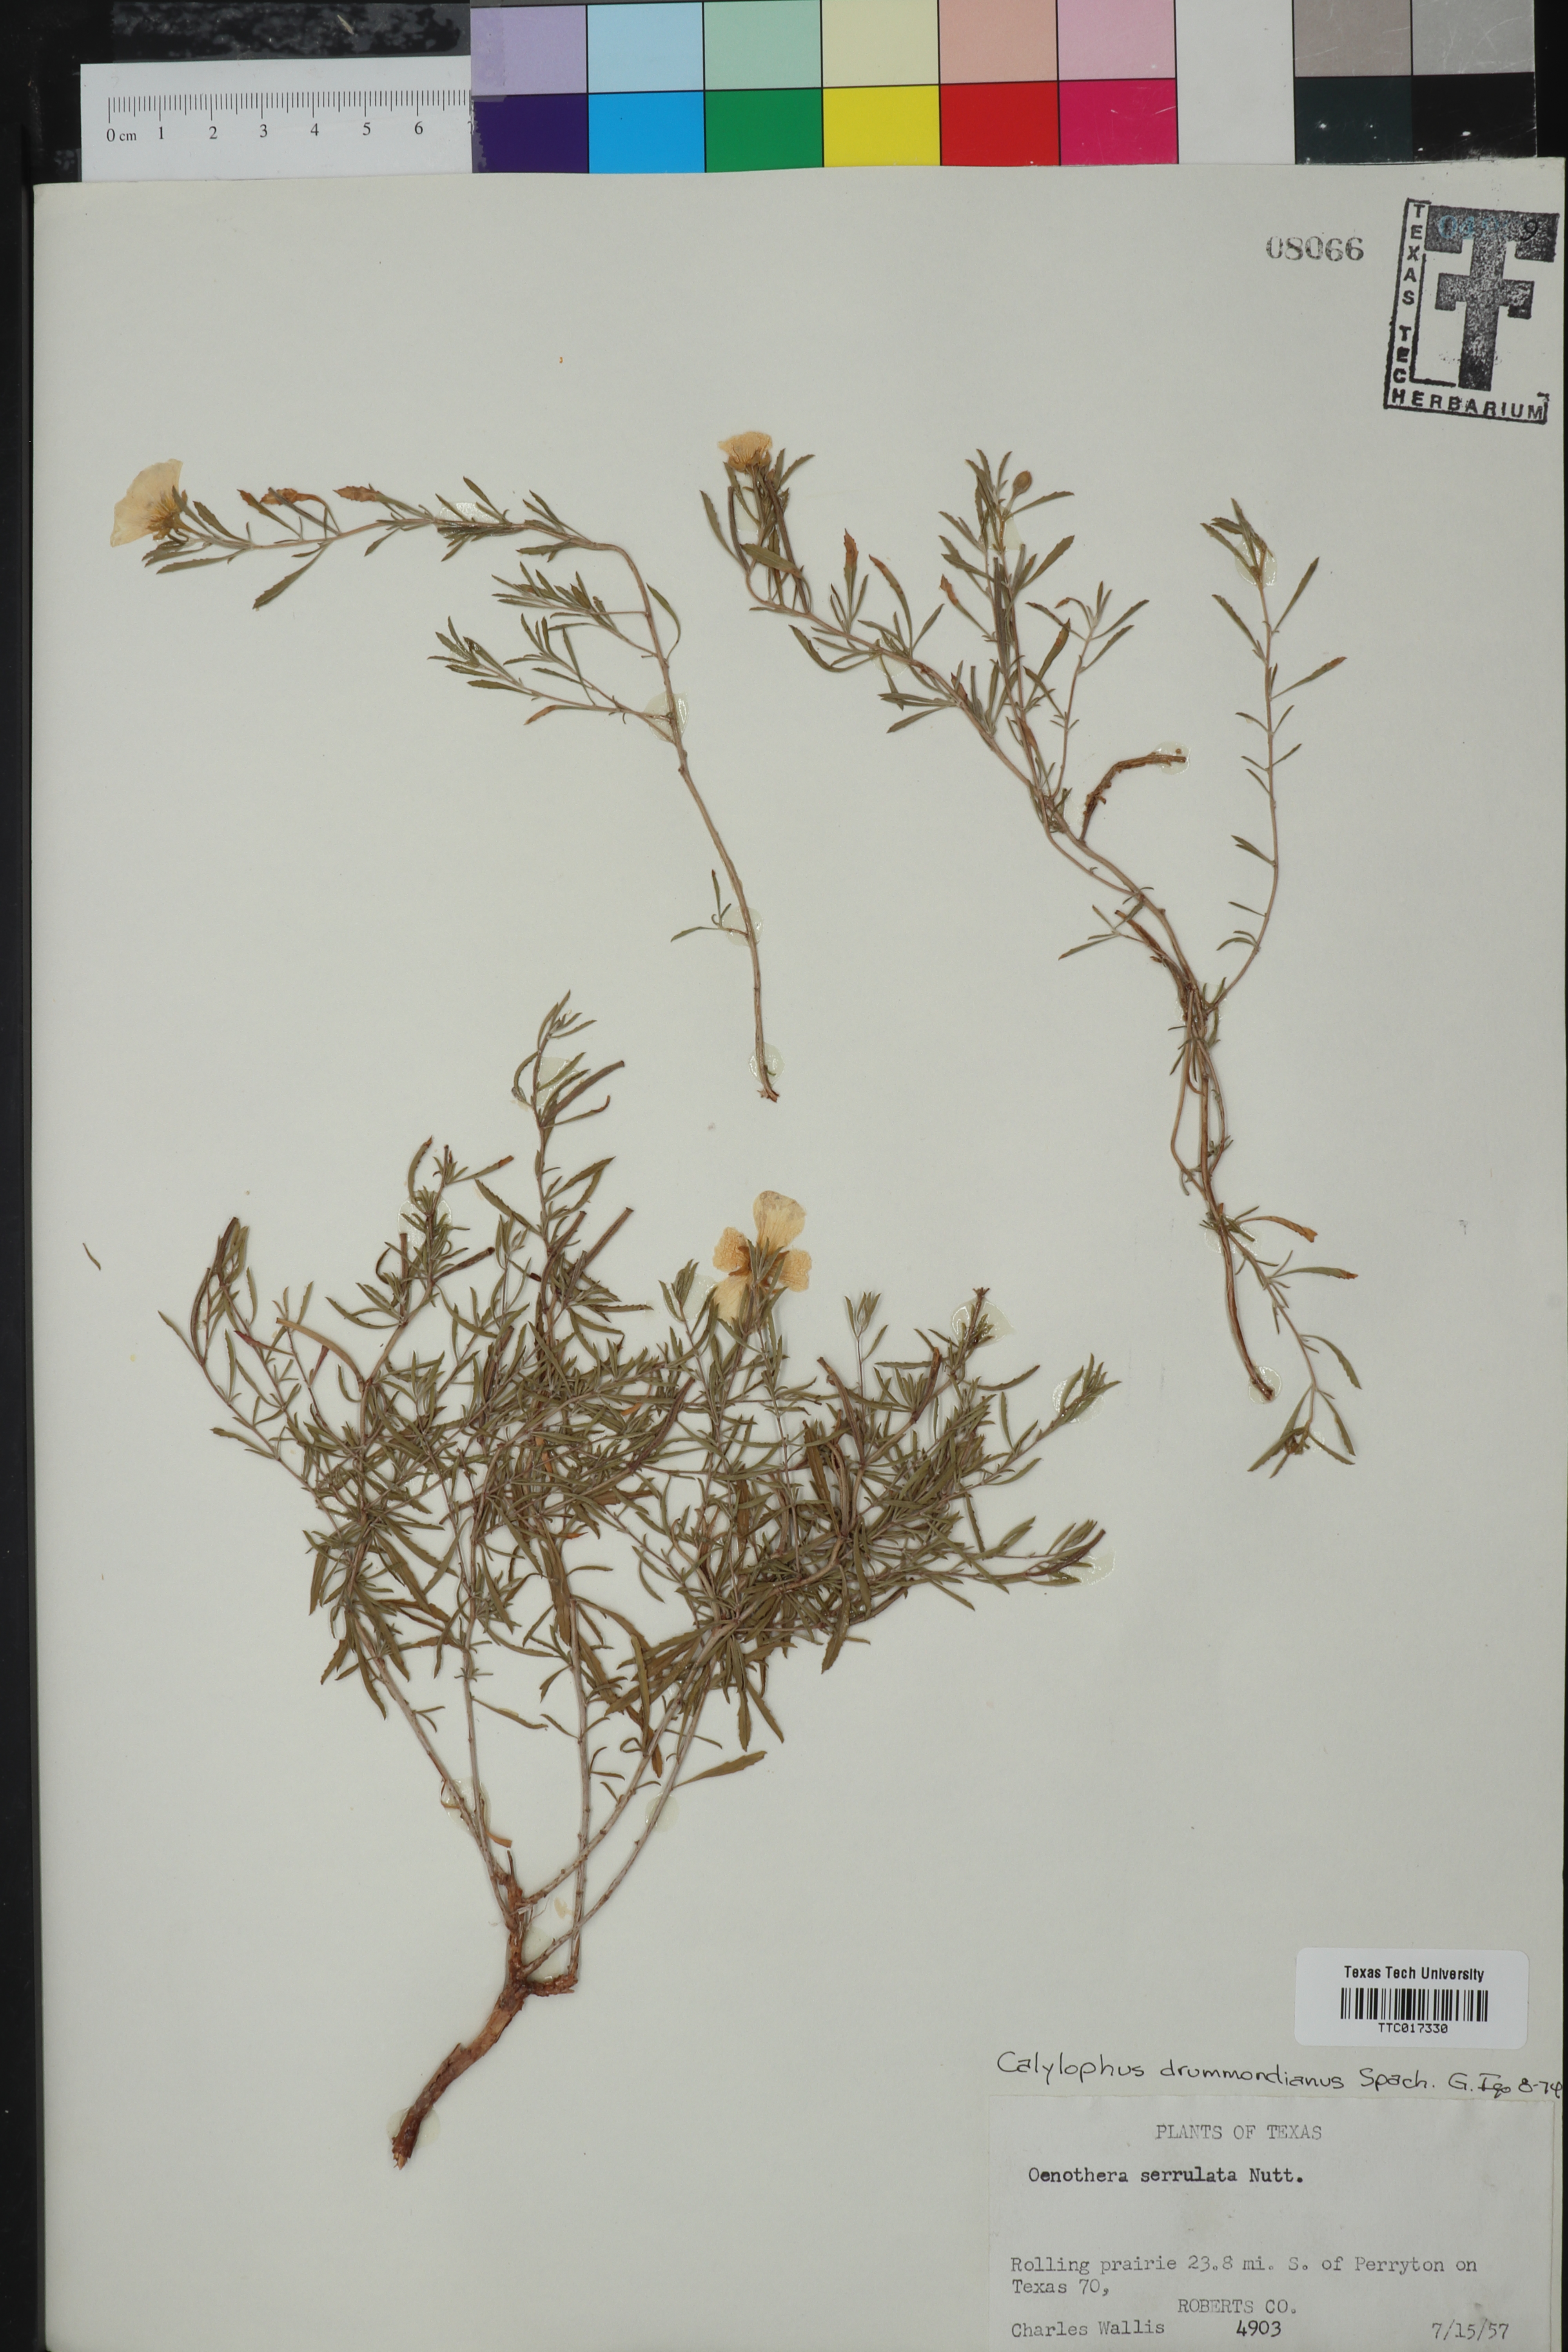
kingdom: Plantae
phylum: Tracheophyta
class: Magnoliopsida
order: Myrtales
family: Onagraceae
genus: Oenothera
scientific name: Oenothera serrulata
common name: Half-shrub calylophus
